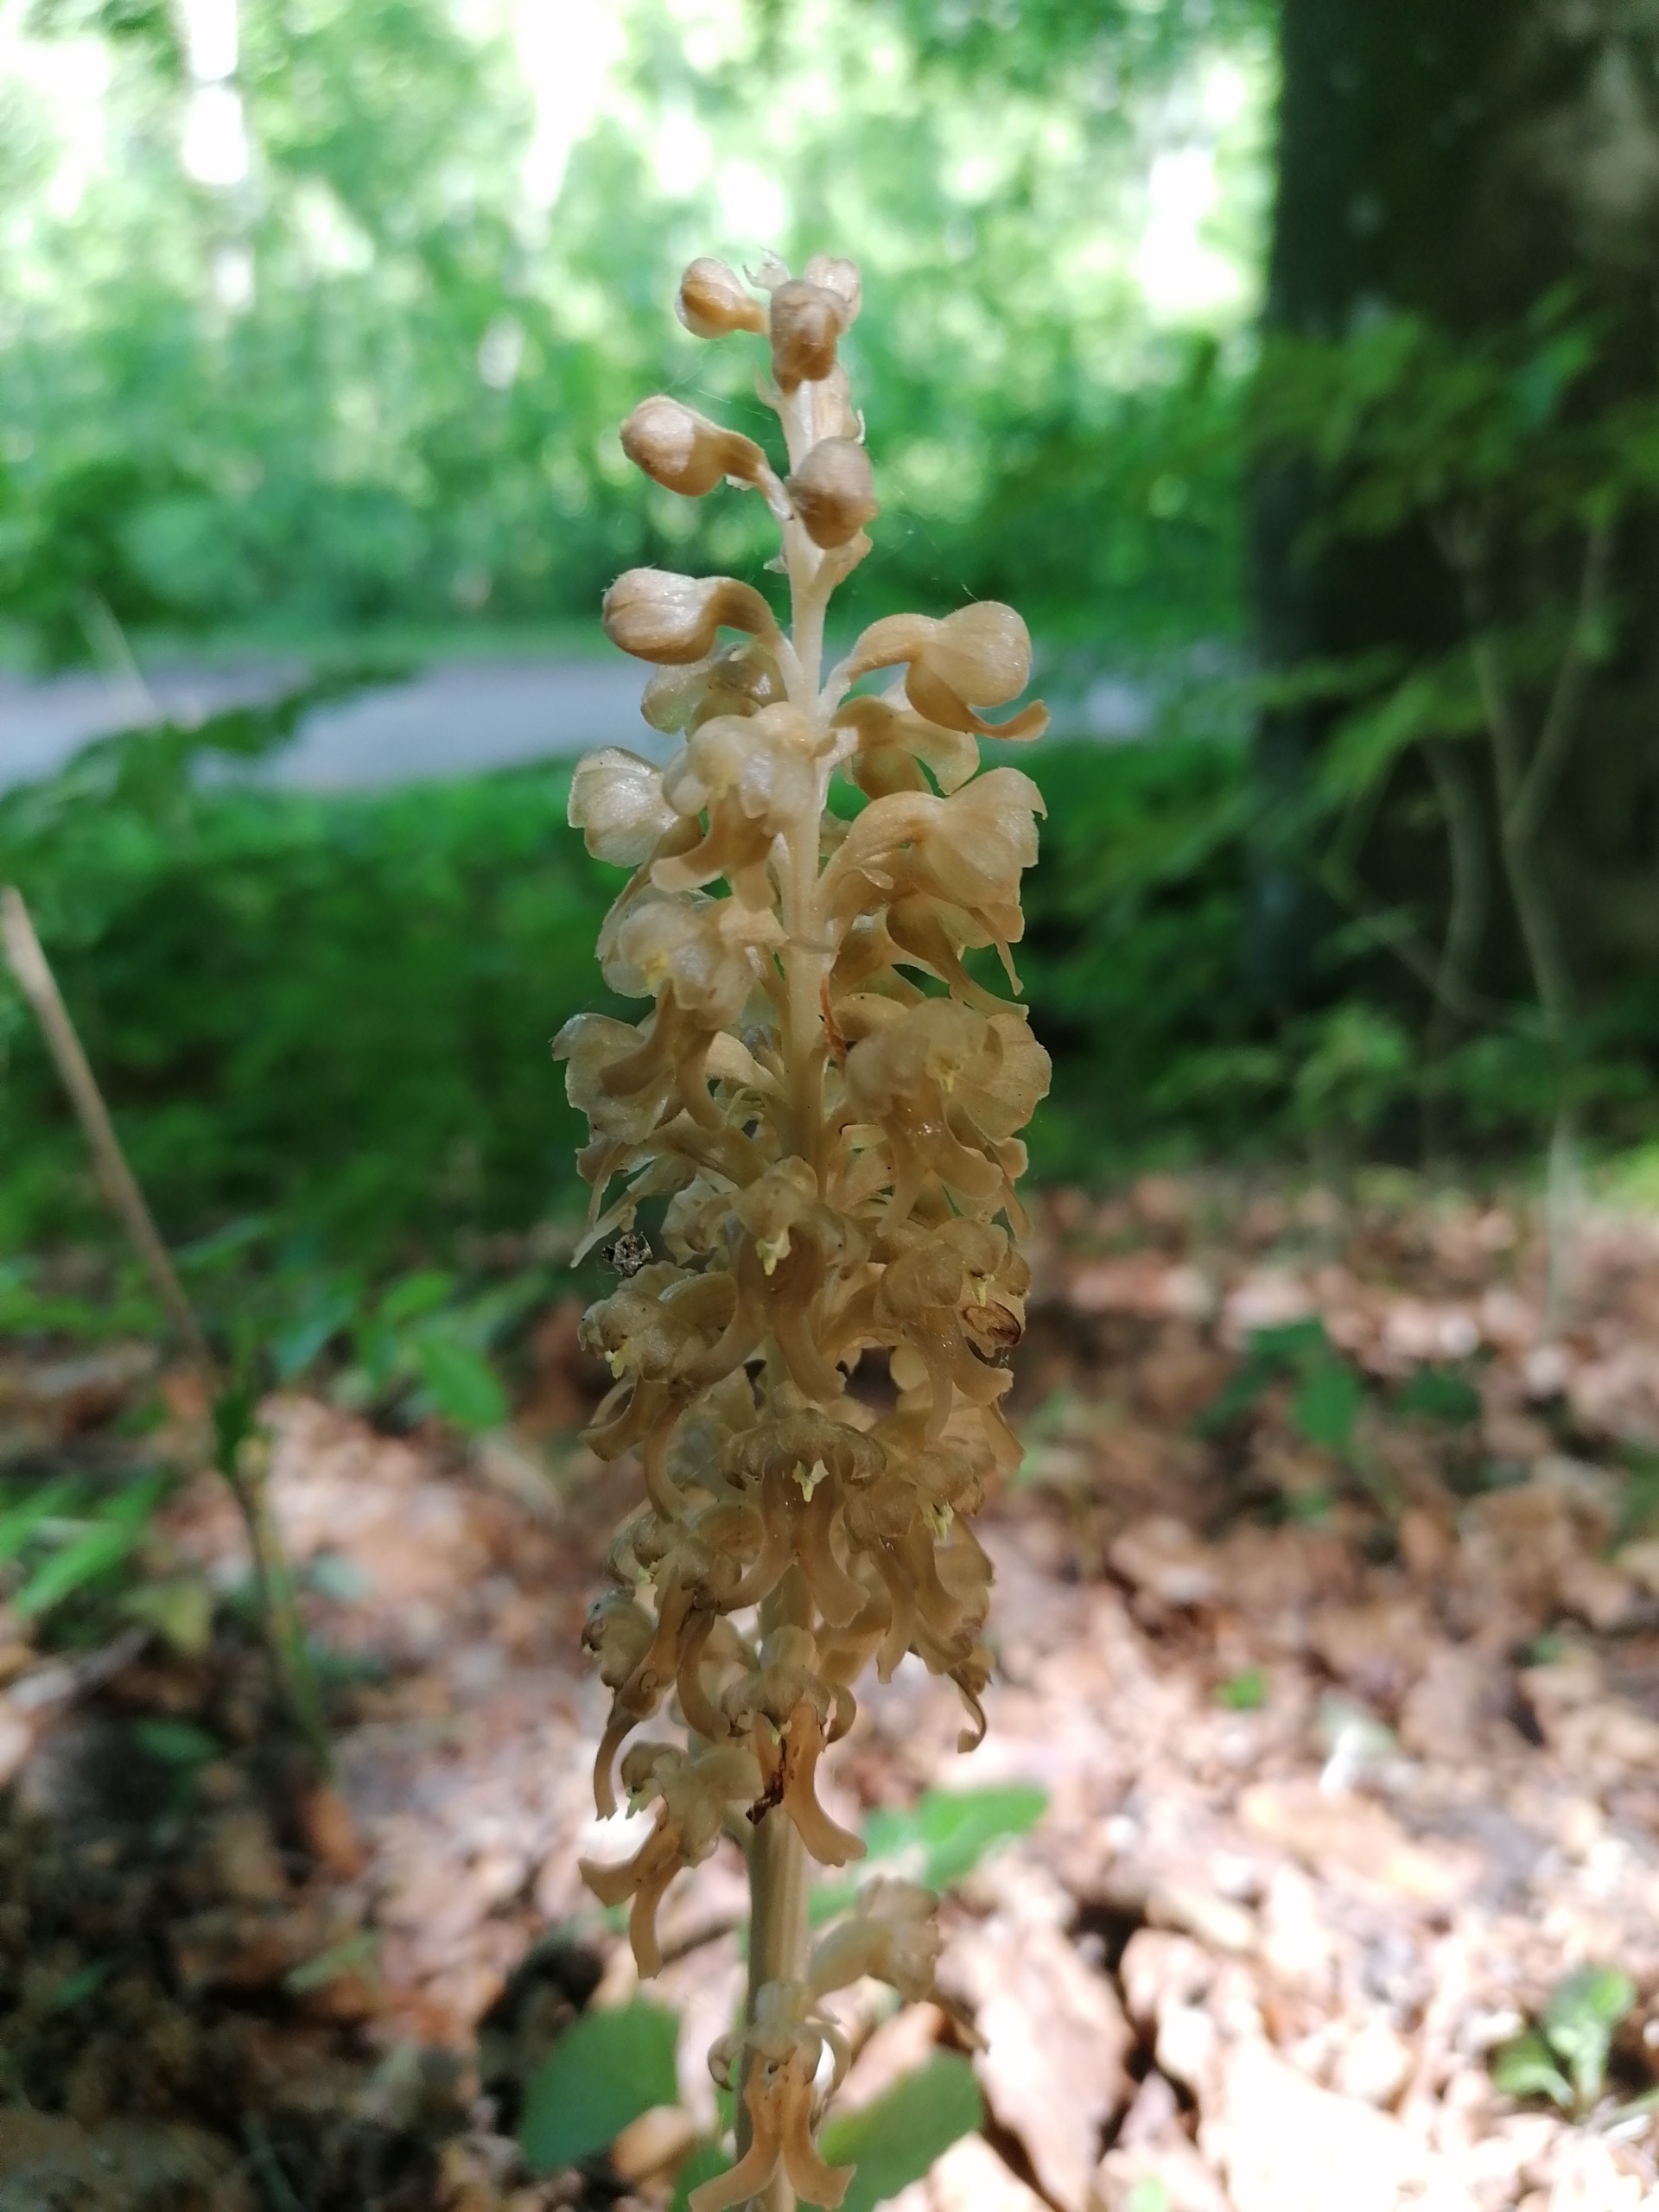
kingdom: Plantae
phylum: Tracheophyta
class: Liliopsida
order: Asparagales
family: Orchidaceae
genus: Neottia
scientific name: Neottia nidus-avis
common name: Rederod
